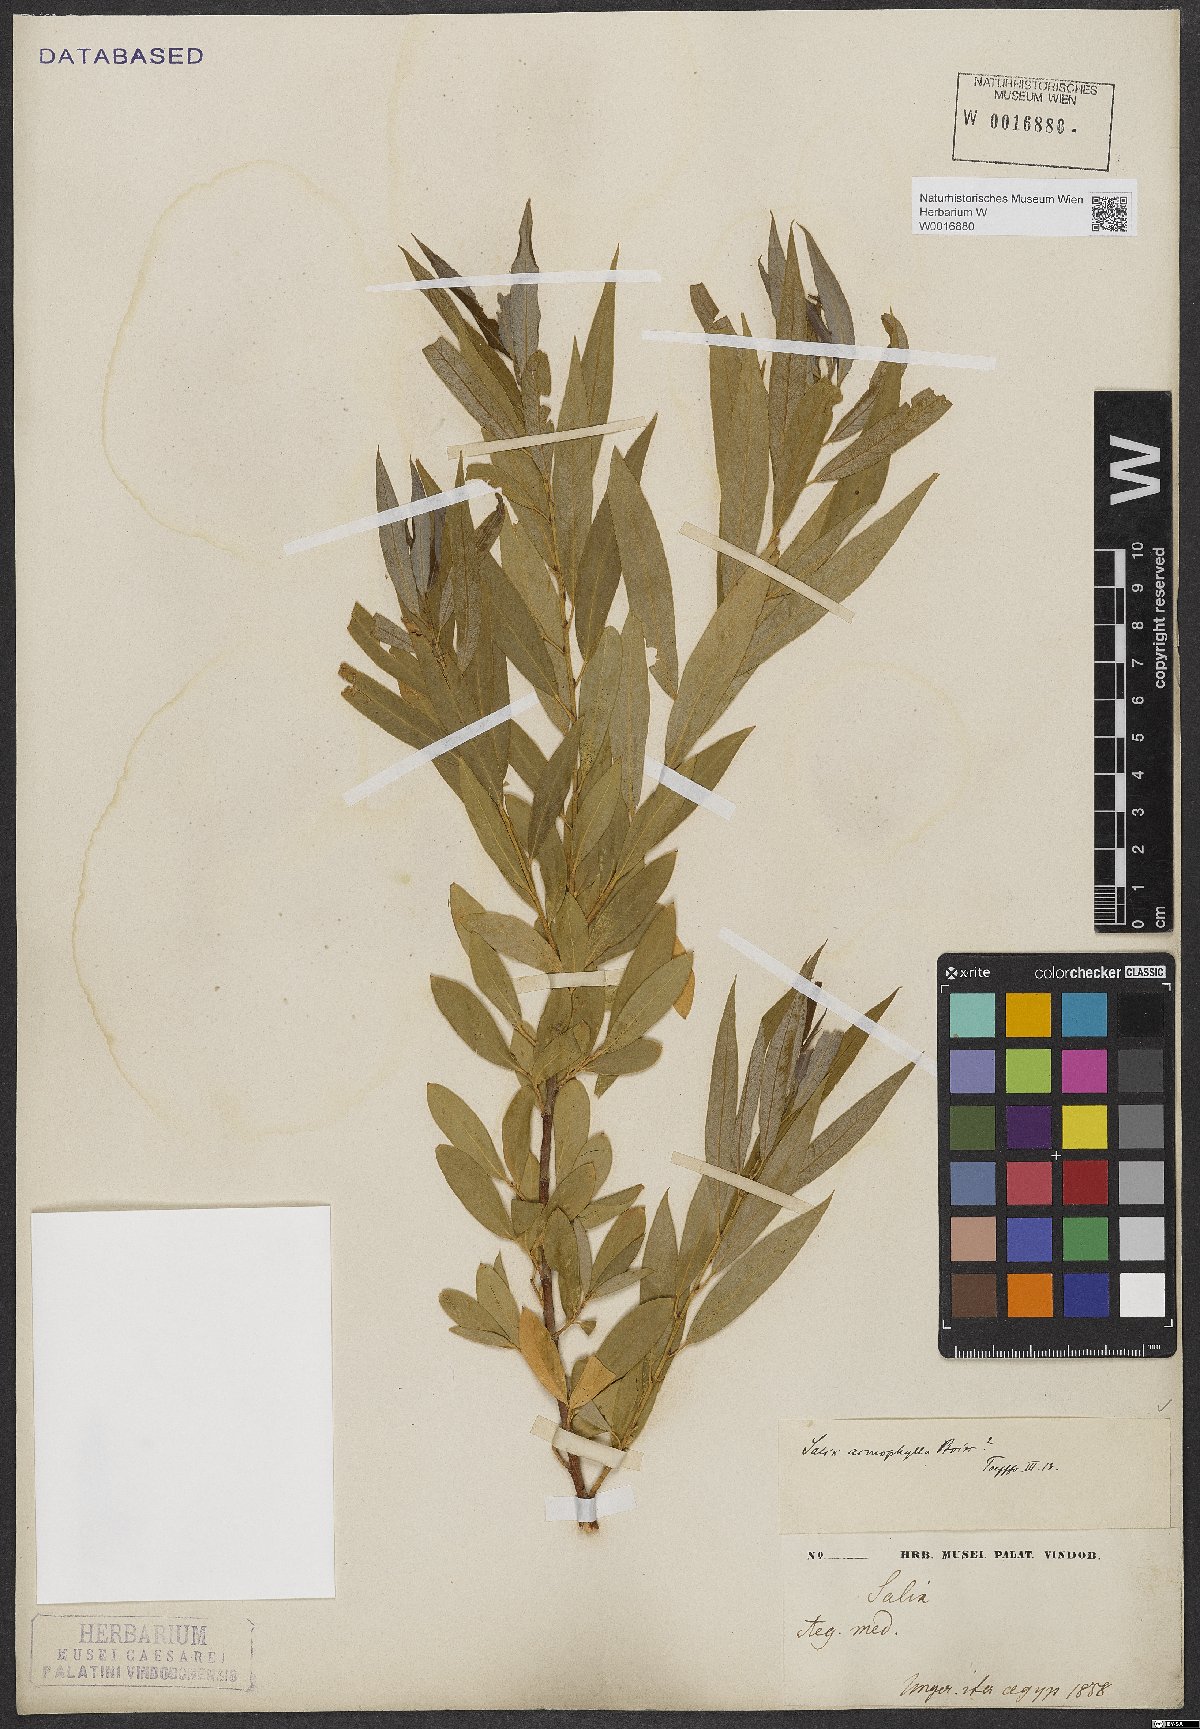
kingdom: Plantae
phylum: Tracheophyta
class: Magnoliopsida
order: Malpighiales
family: Salicaceae
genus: Salix
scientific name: Salix acmophylla
